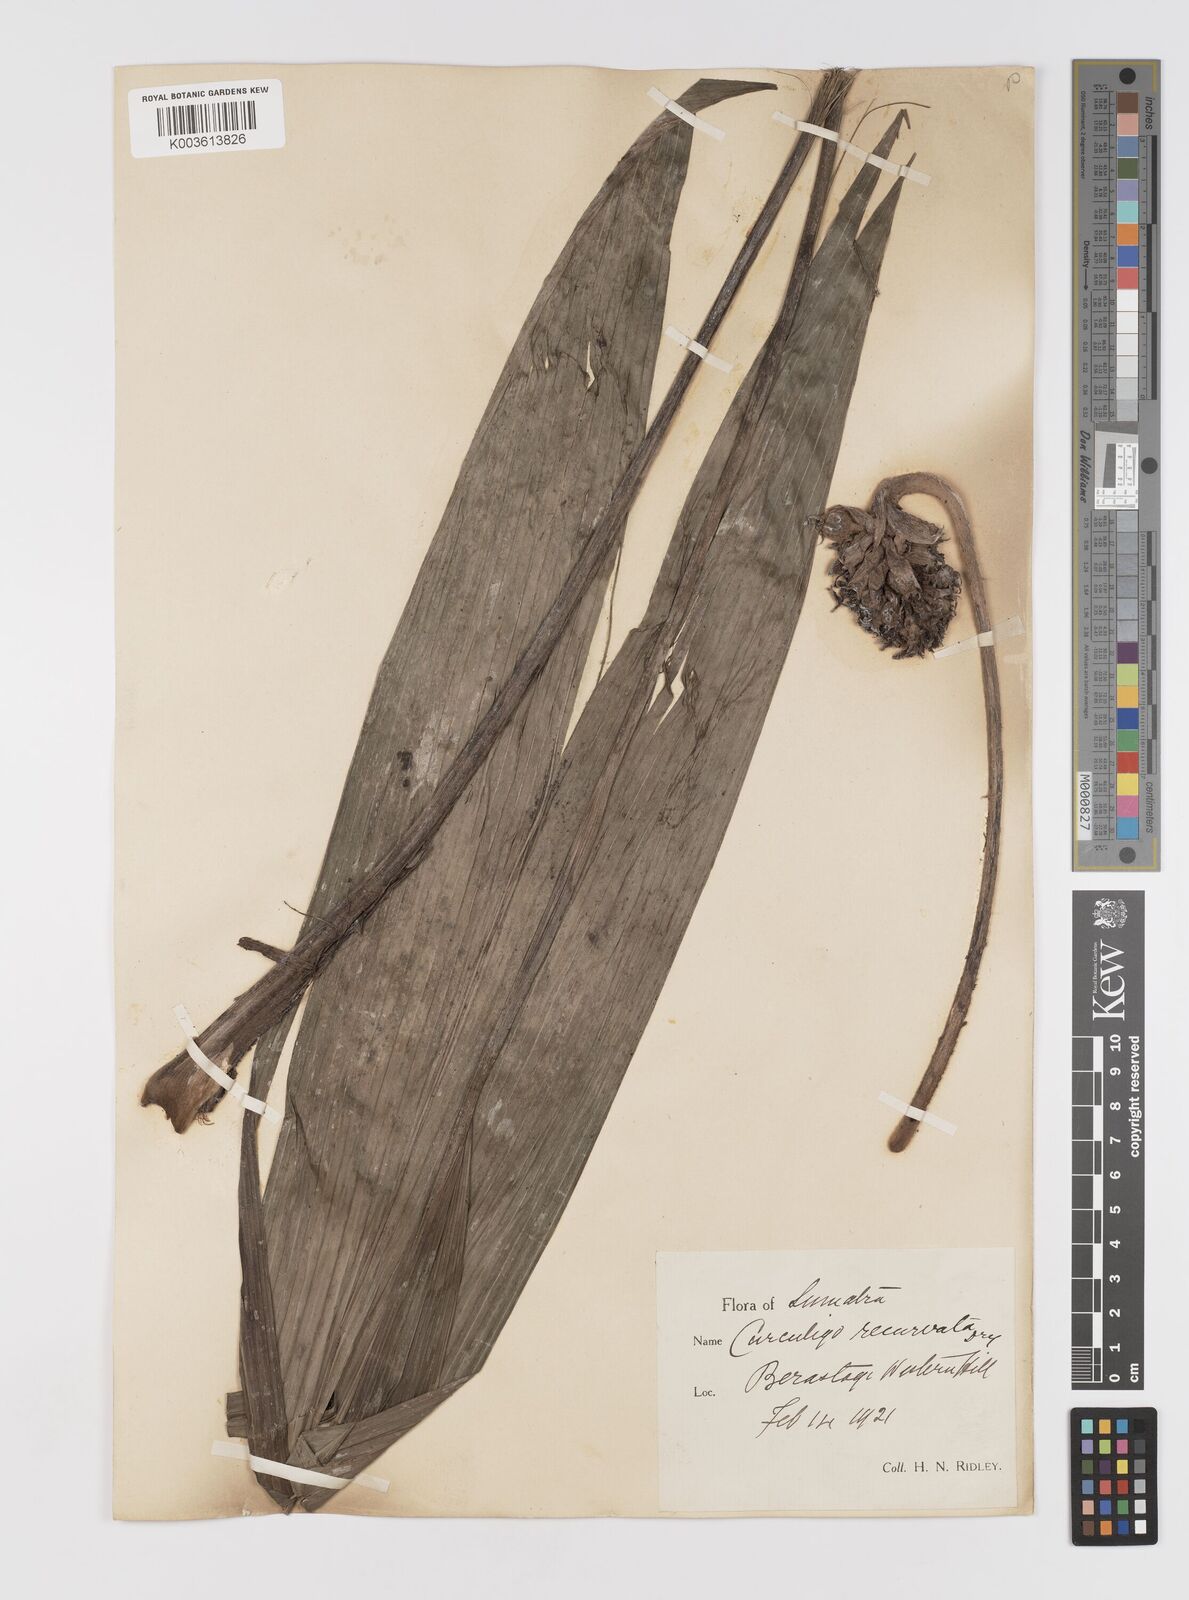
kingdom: Plantae
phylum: Tracheophyta
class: Liliopsida
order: Asparagales
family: Hypoxidaceae
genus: Curculigo
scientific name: Curculigo capitulata
